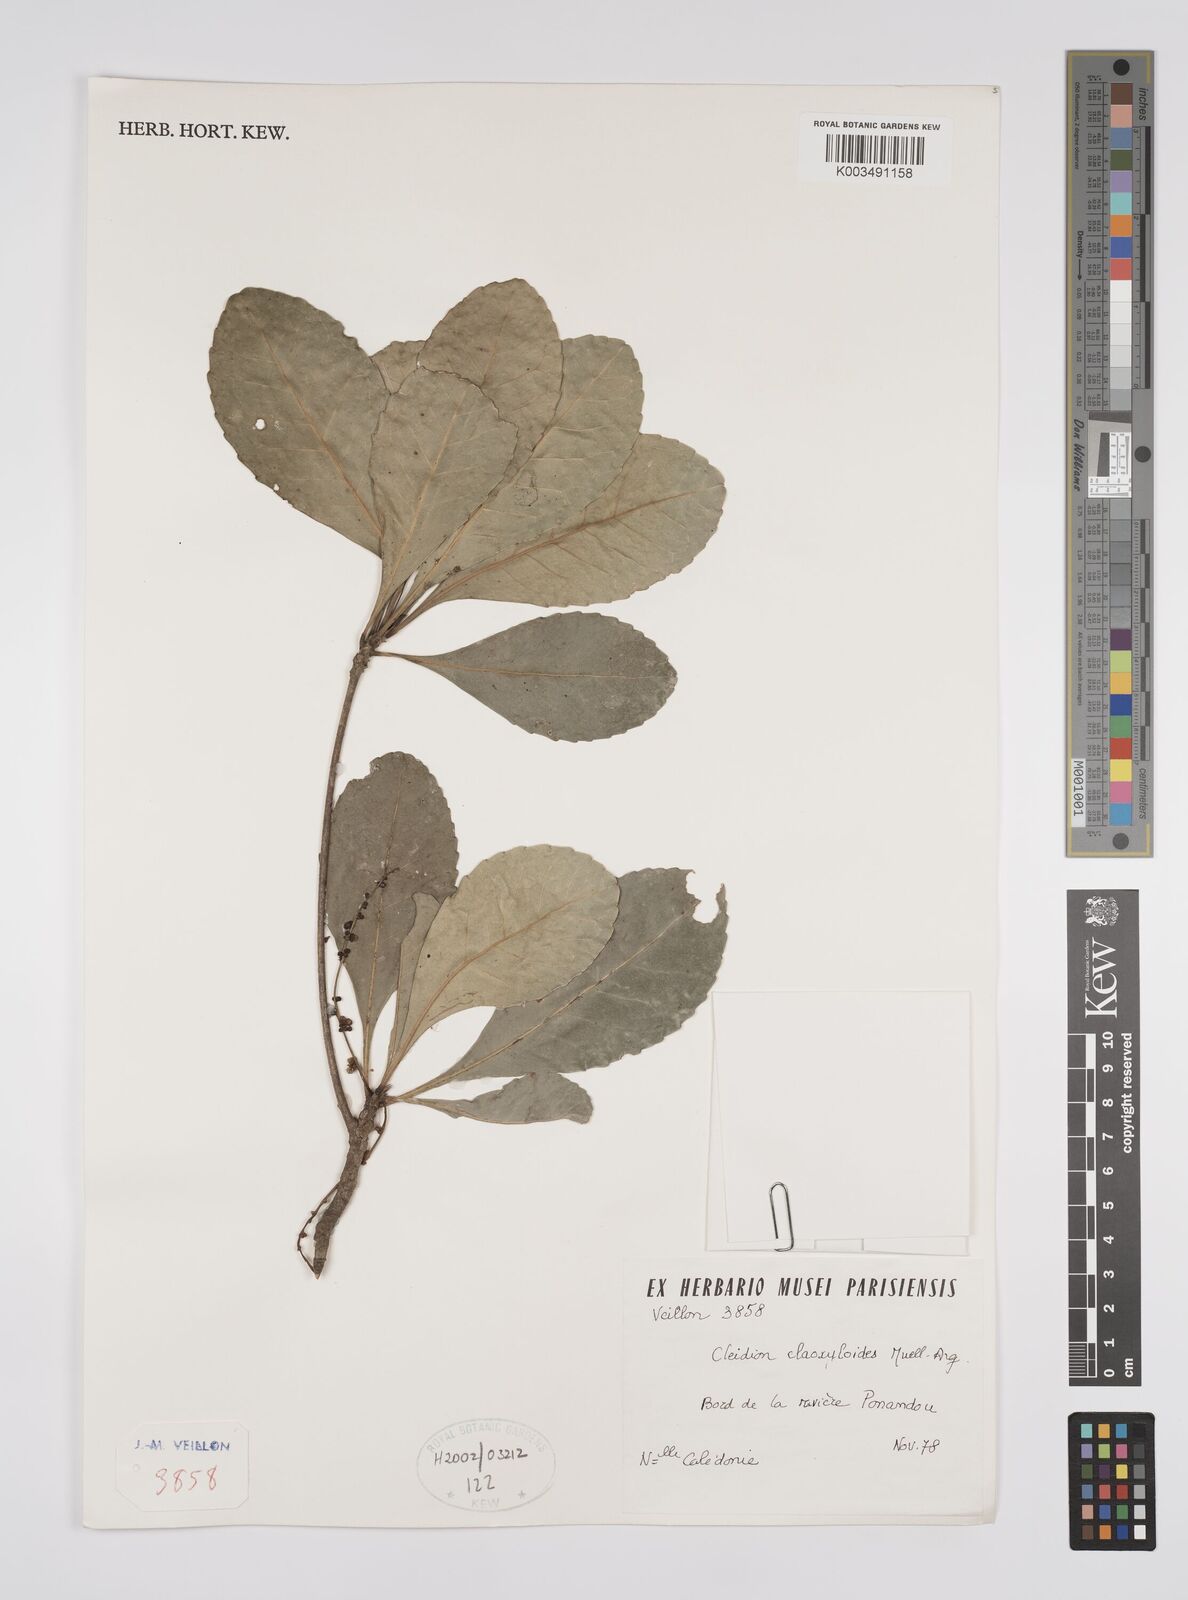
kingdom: Plantae
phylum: Tracheophyta
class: Magnoliopsida
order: Malpighiales
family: Euphorbiaceae
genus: Cleidion
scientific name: Cleidion claoxyloides
